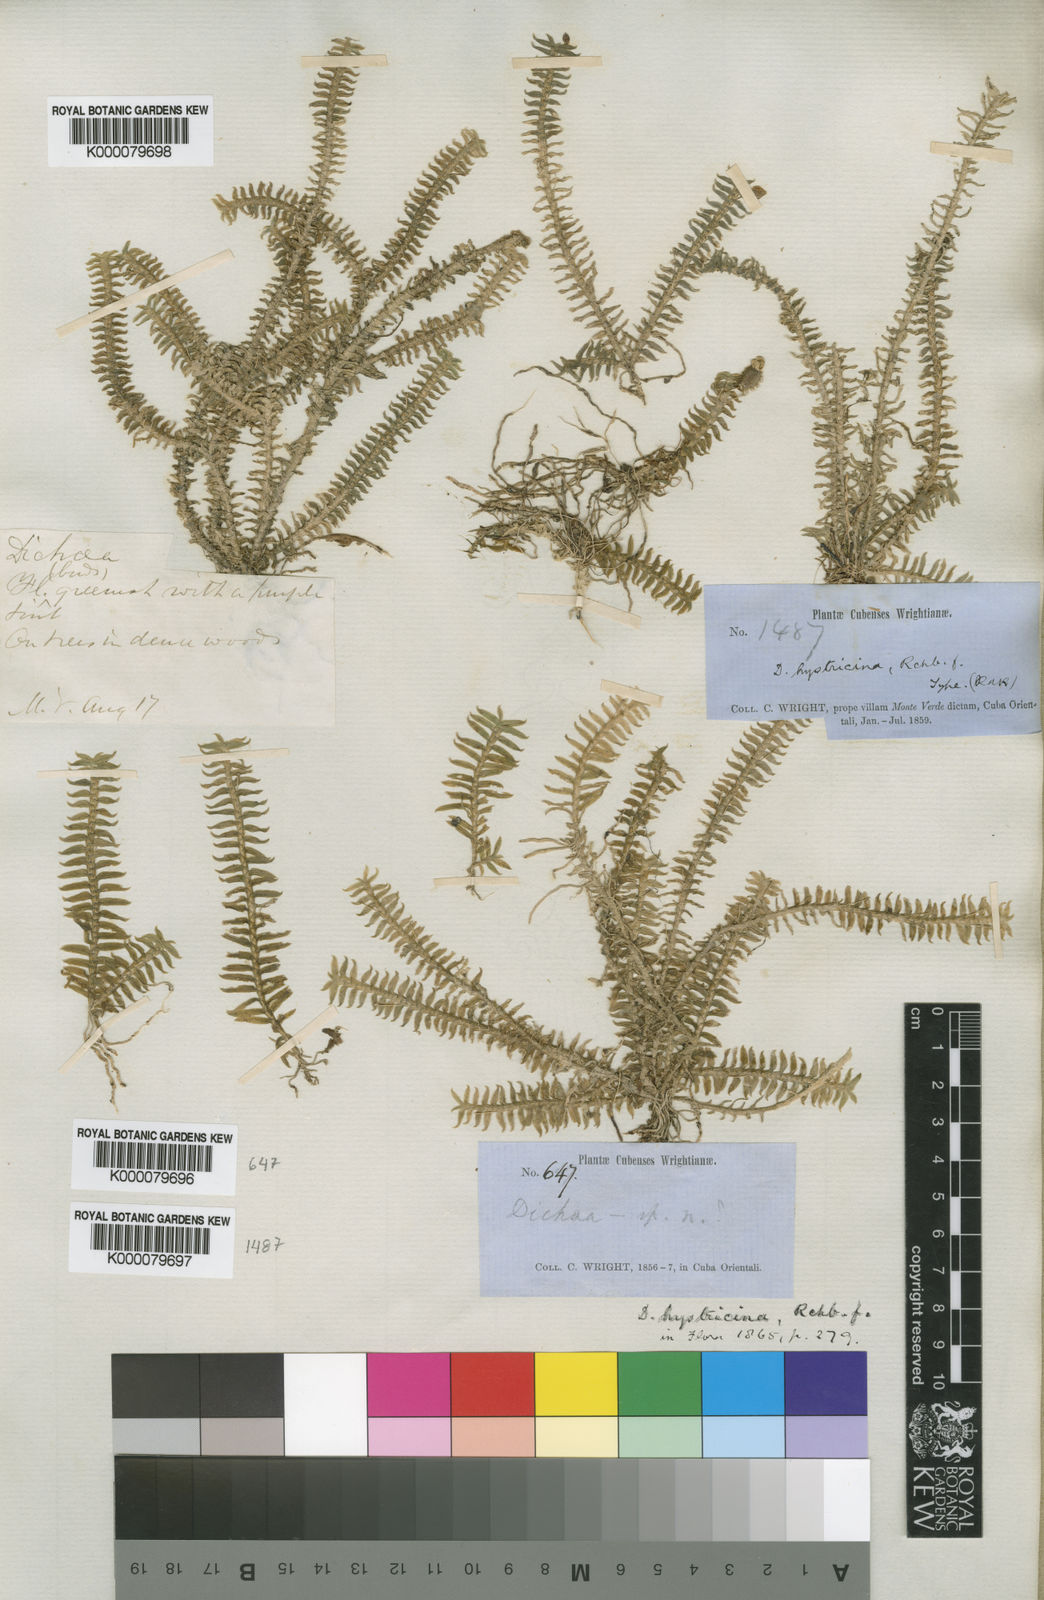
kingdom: Plantae
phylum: Tracheophyta
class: Liliopsida
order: Asparagales
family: Orchidaceae
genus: Dichaea
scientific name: Dichaea hystricina
